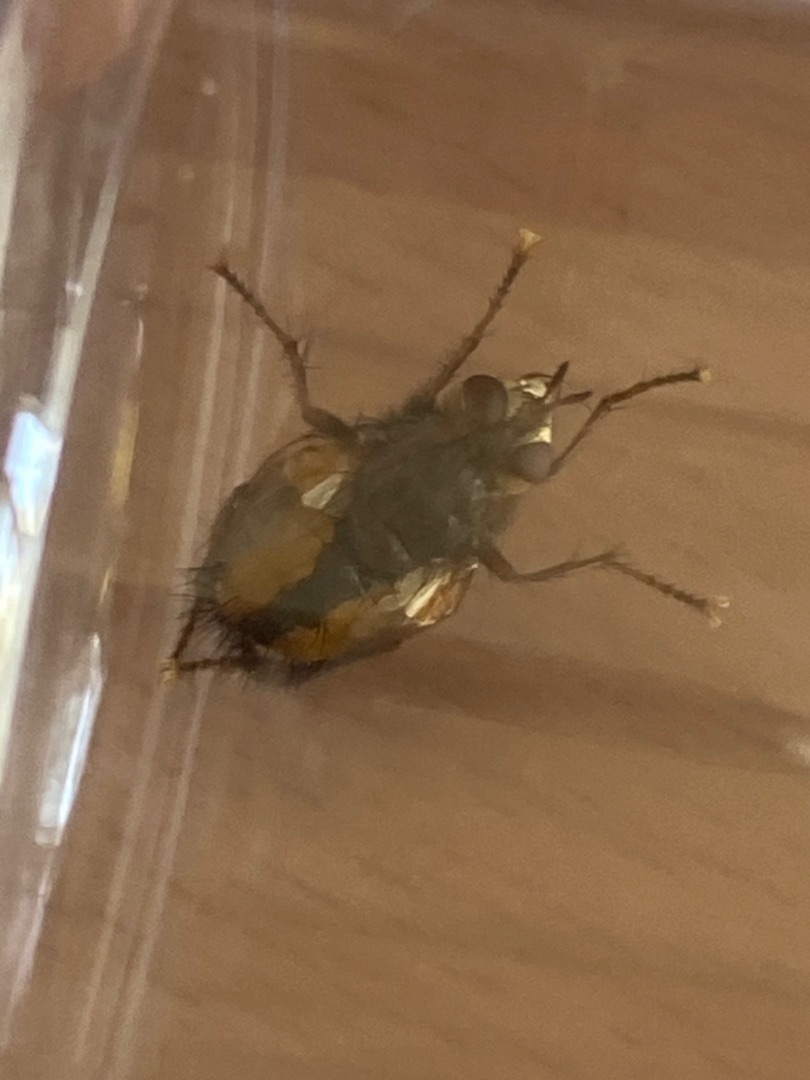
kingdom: Animalia
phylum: Arthropoda
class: Insecta
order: Diptera
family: Tachinidae
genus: Tachina
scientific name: Tachina fera
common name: Mellemfluen oskar
